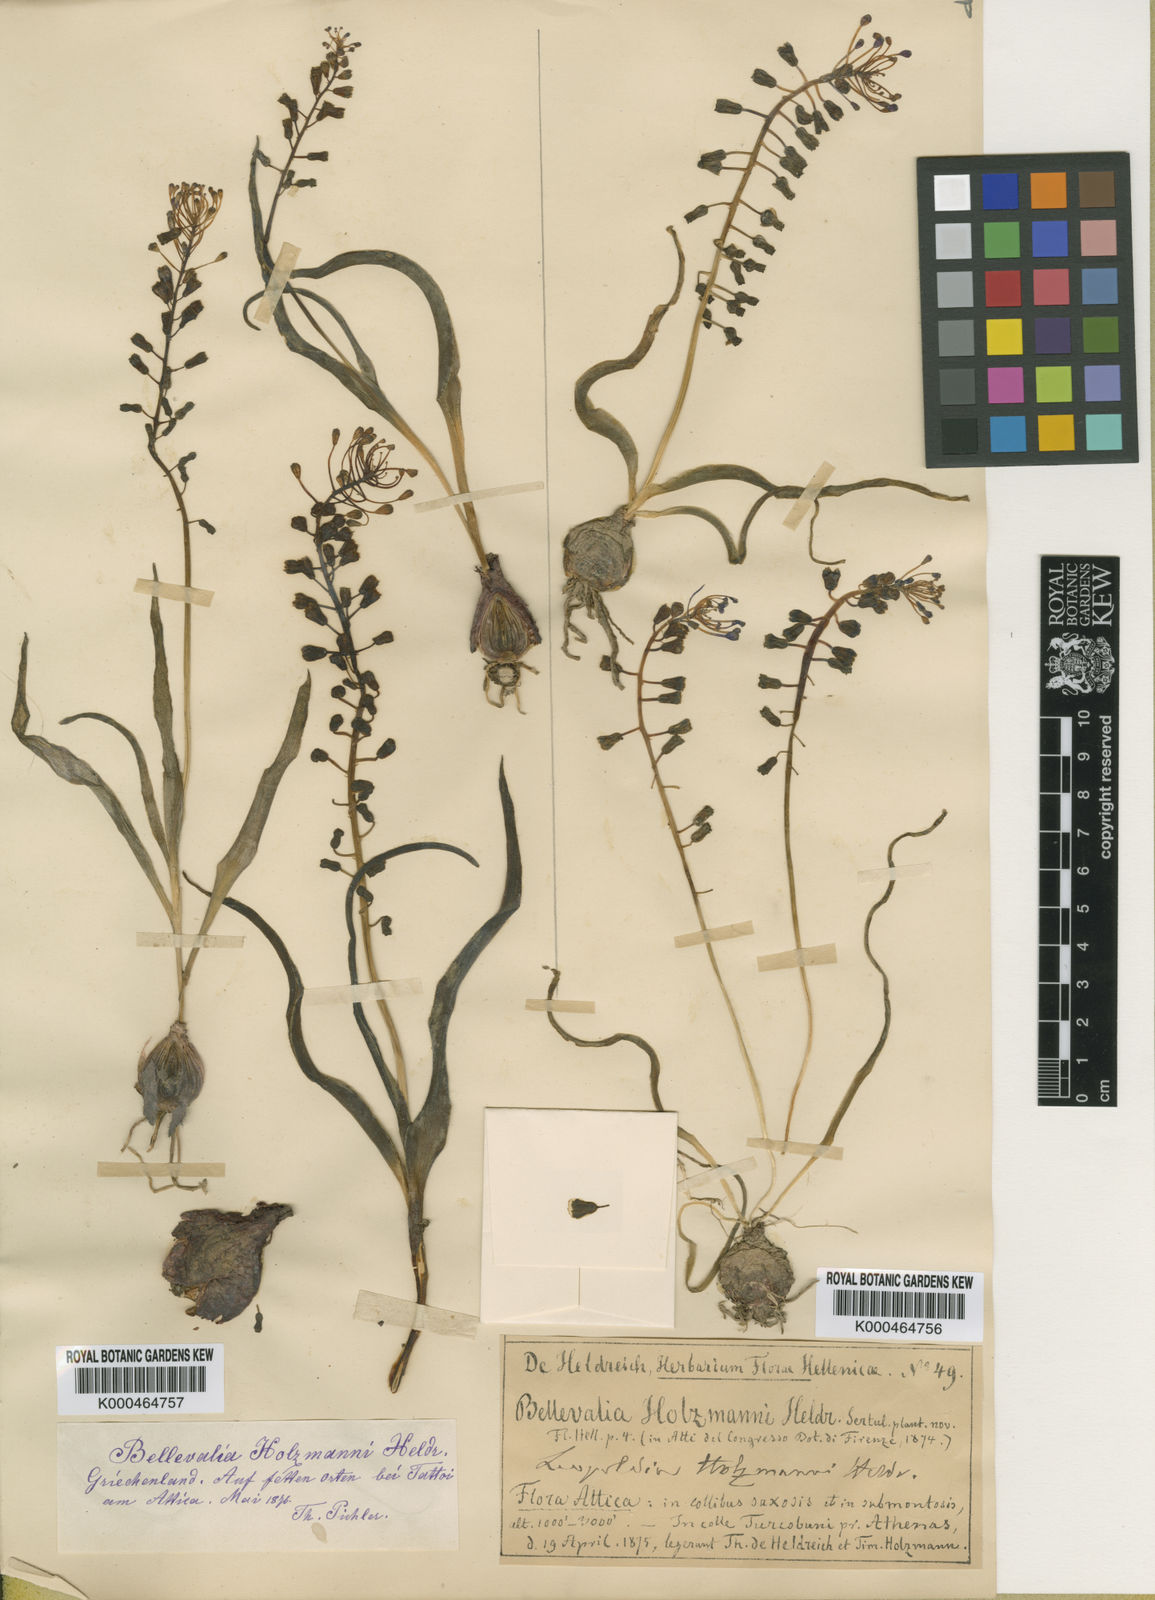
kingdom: Plantae
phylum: Tracheophyta
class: Liliopsida
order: Asparagales
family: Asparagaceae
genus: Muscari
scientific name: Muscari comosum
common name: Tassel hyacinth
